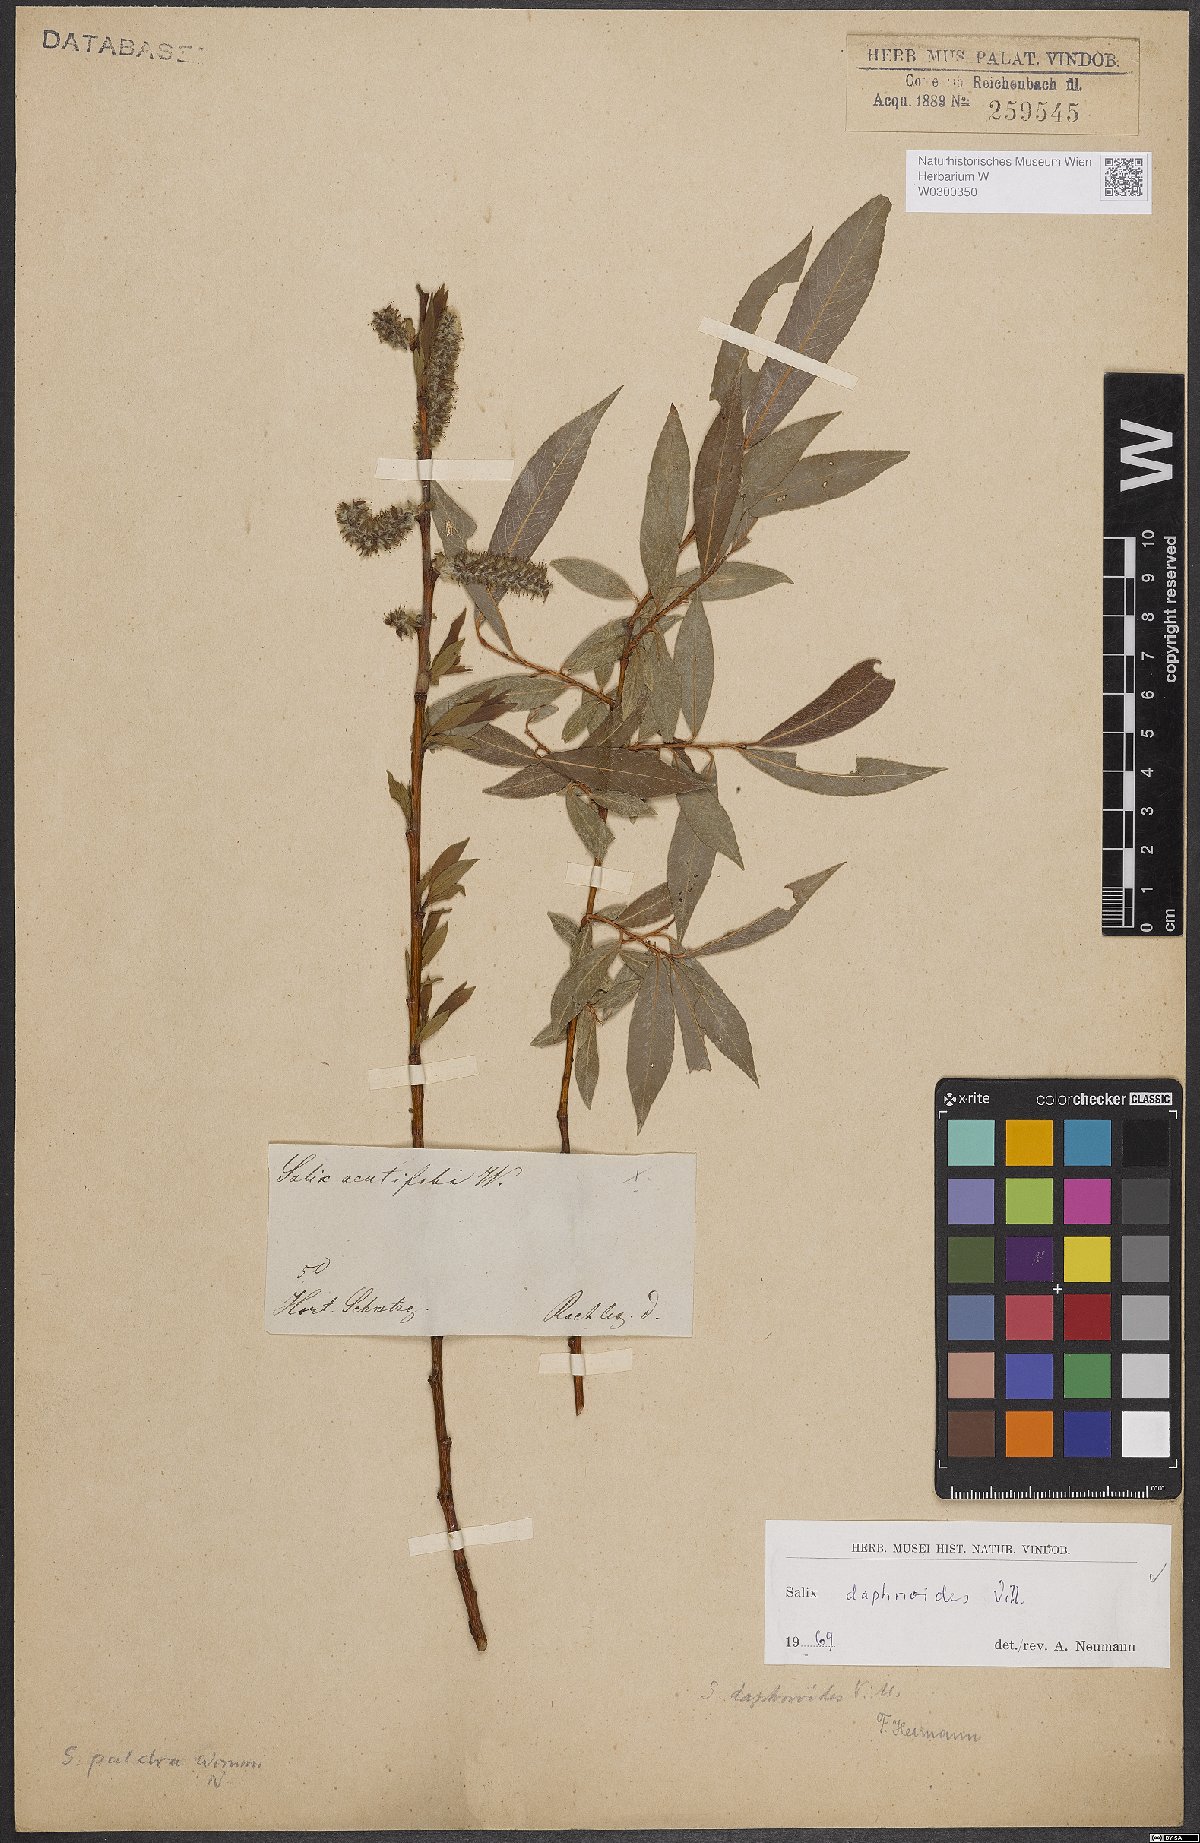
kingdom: Plantae
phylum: Tracheophyta
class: Magnoliopsida
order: Malpighiales
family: Salicaceae
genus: Salix
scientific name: Salix daphnoides
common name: European violet-willow
